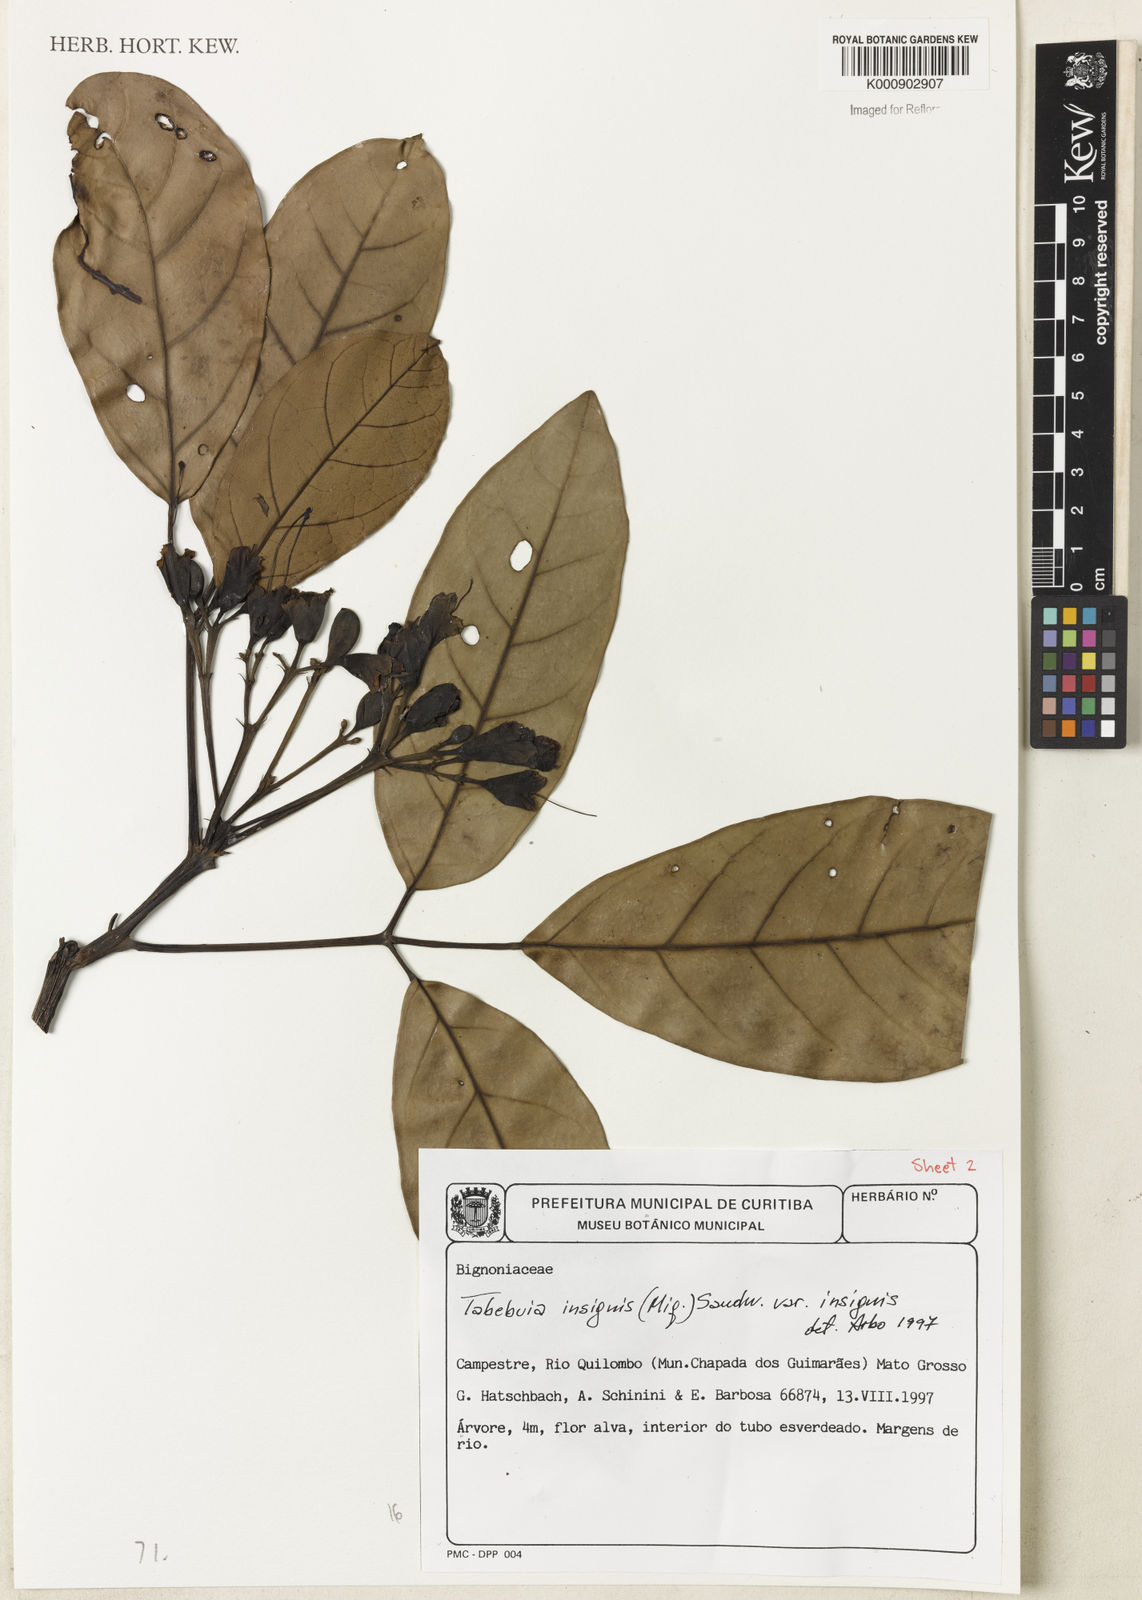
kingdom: Plantae
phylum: Tracheophyta
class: Magnoliopsida
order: Lamiales
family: Bignoniaceae
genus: Tabebuia
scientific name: Tabebuia insignis
